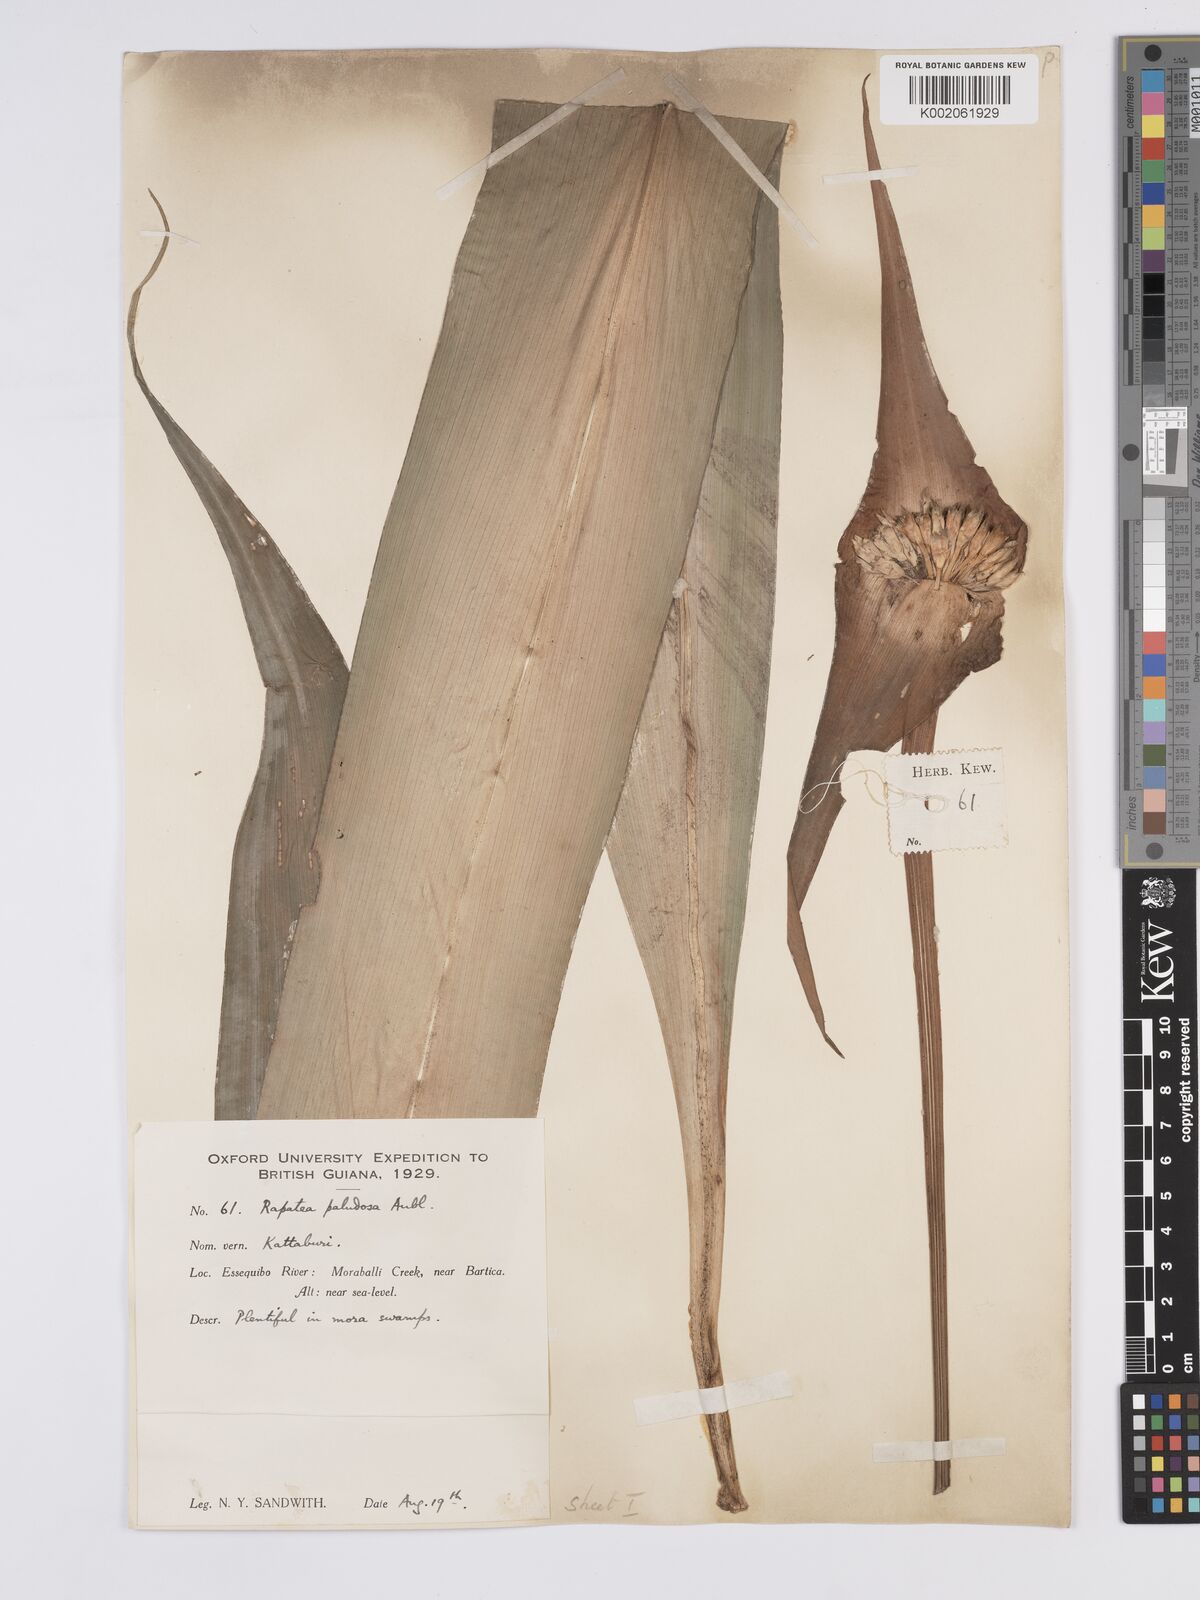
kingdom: Plantae
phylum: Tracheophyta
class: Liliopsida
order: Poales
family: Rapateaceae
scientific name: Rapateaceae
